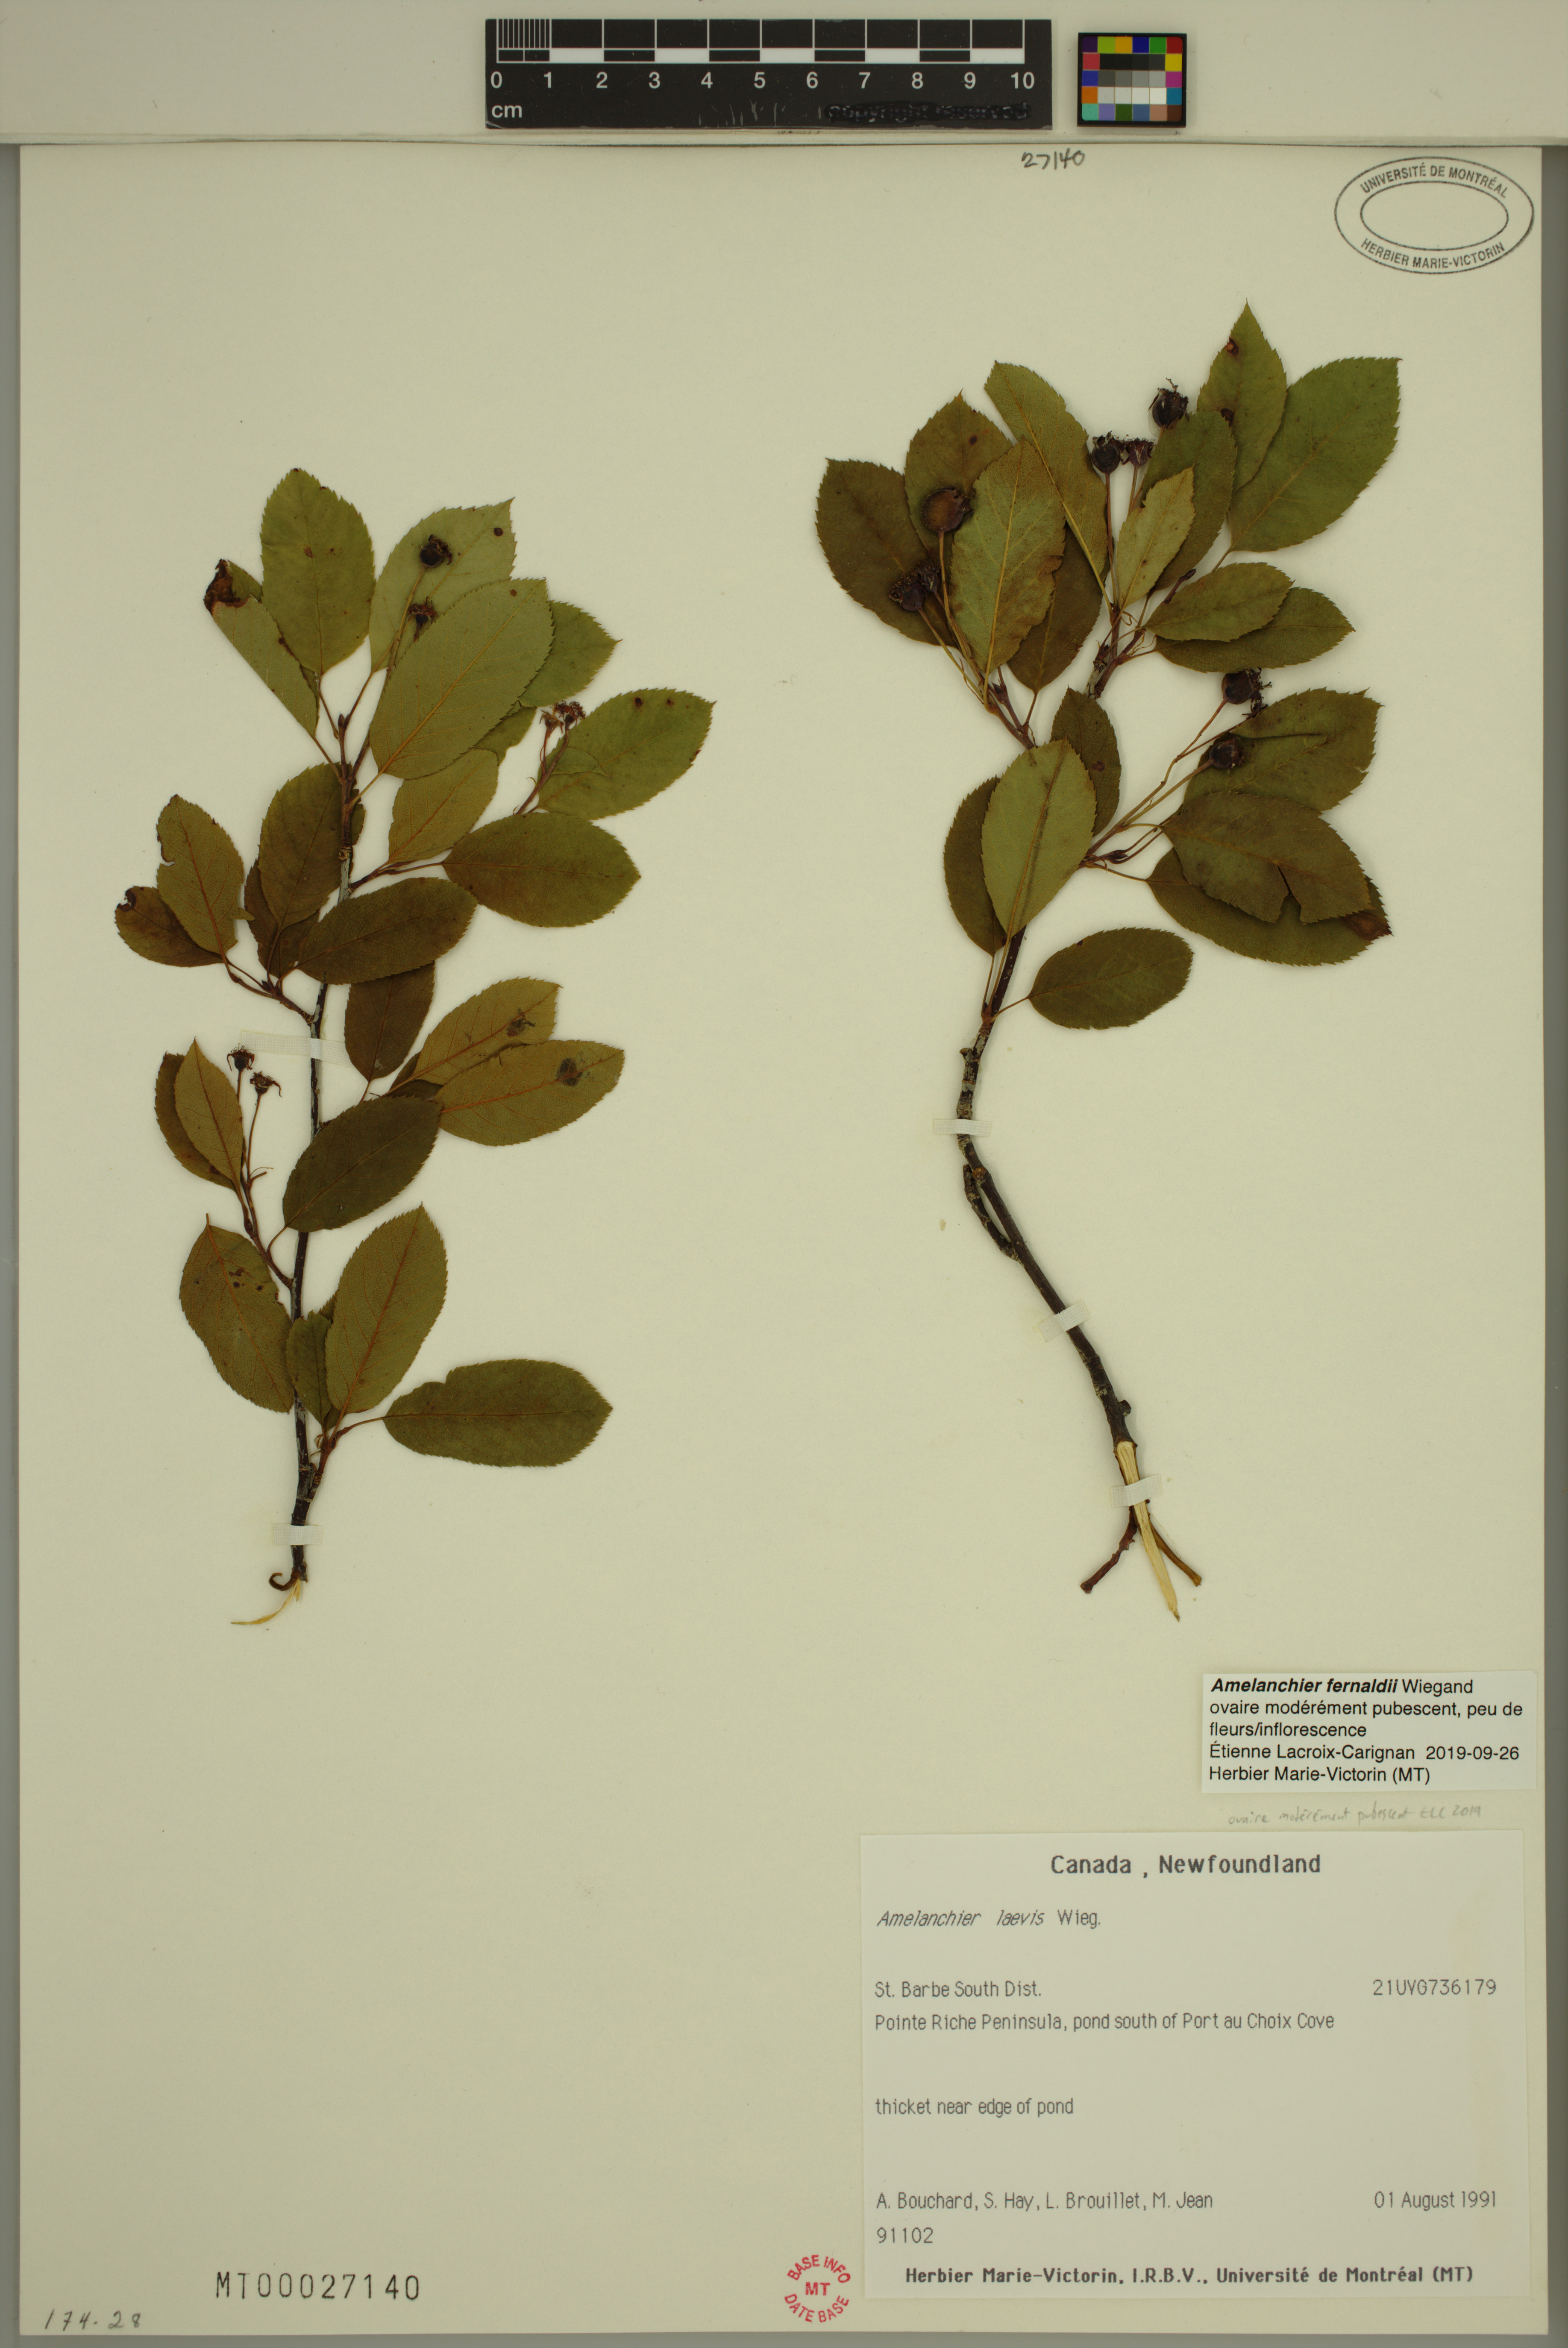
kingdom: Plantae
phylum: Tracheophyta
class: Magnoliopsida
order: Rosales
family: Rosaceae
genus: Amelanchier
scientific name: Amelanchier canadensis
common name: Thicket serviceberry
